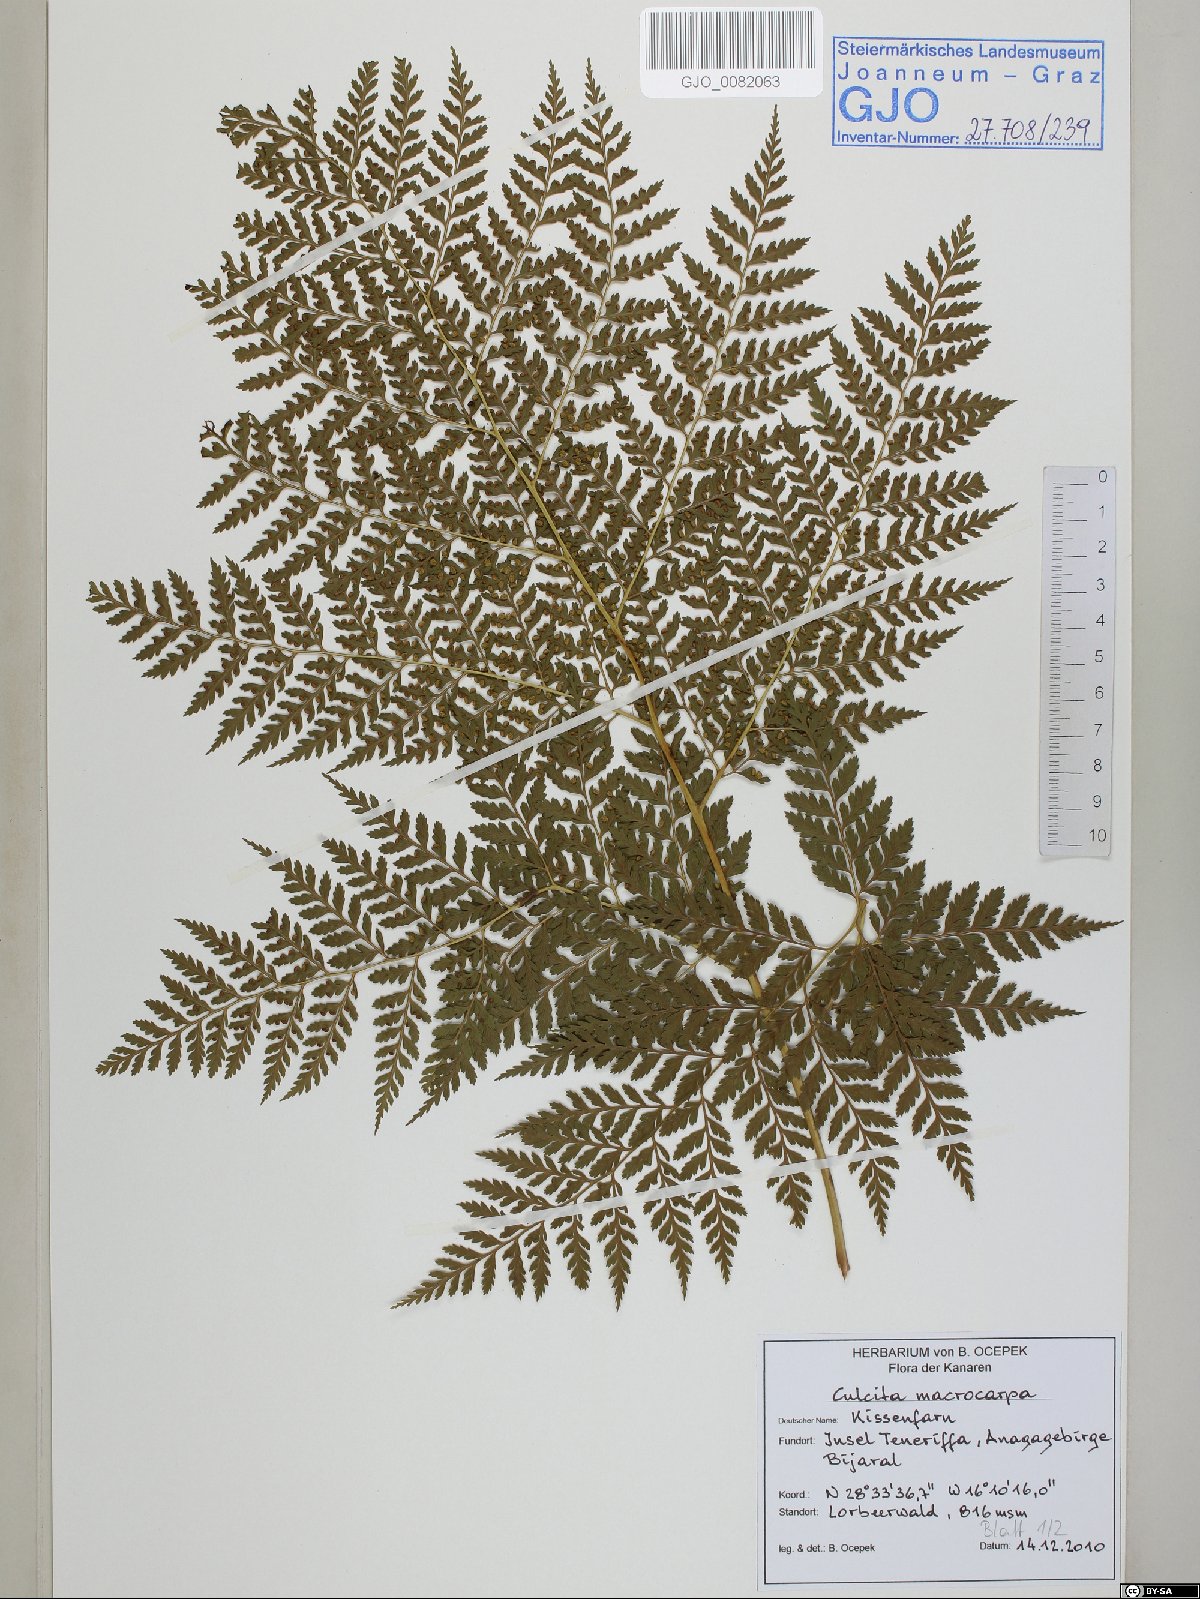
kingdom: Plantae
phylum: Tracheophyta
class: Polypodiopsida
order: Cyatheales
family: Culcitaceae
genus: Culcita
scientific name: Culcita macrocarpa
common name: Woolly tree fern
